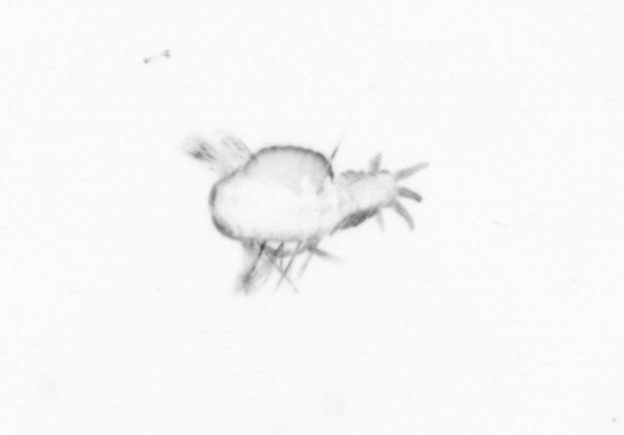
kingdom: Animalia
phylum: Annelida
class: Polychaeta
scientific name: Polychaeta
